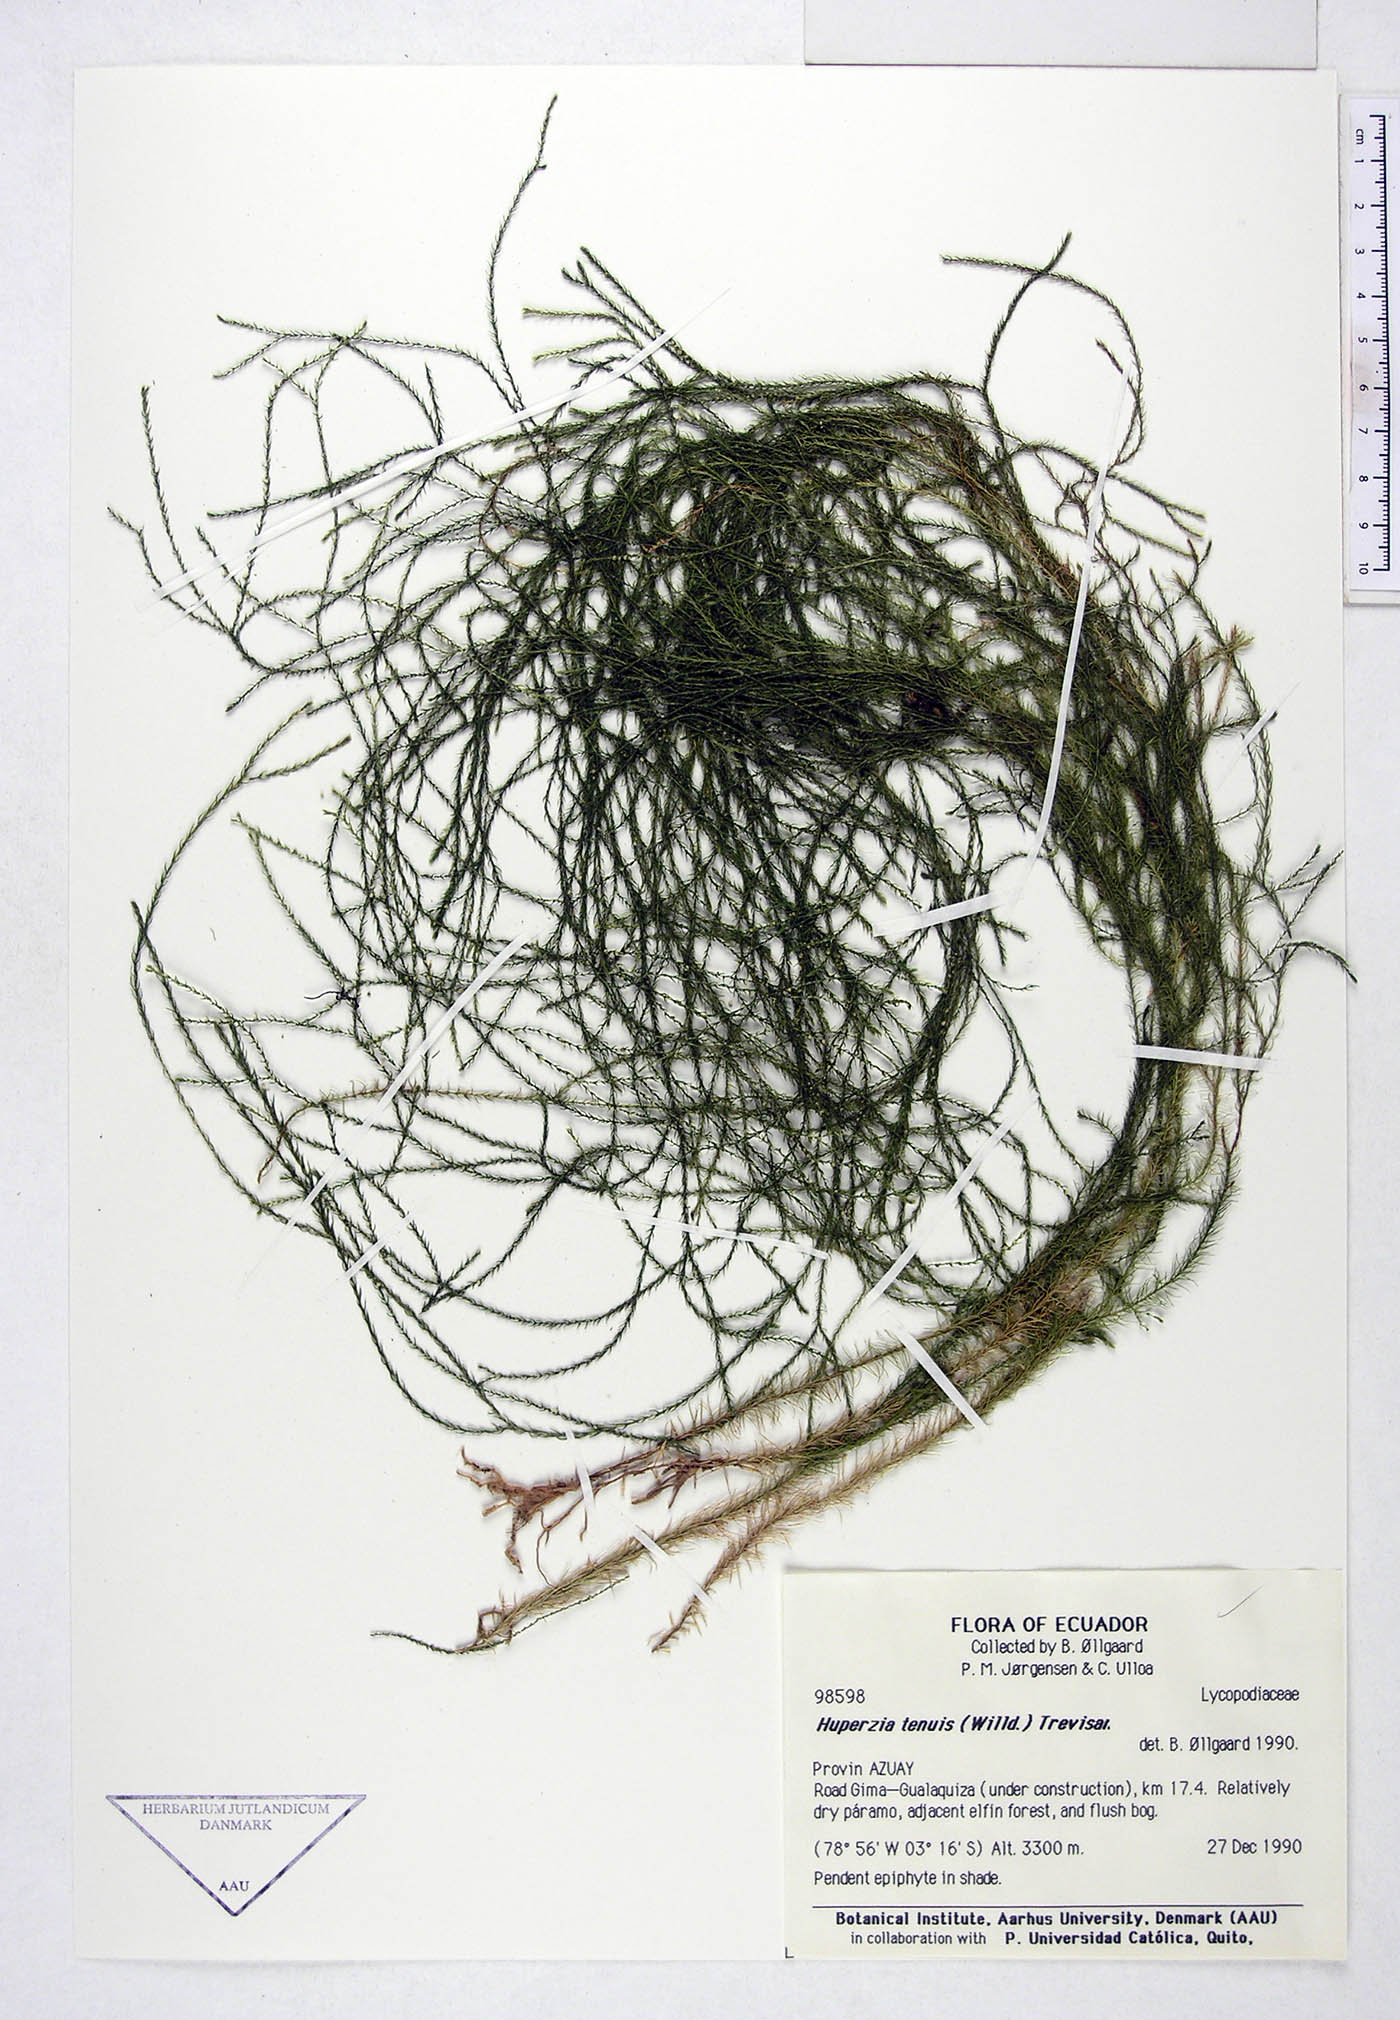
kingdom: Plantae
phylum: Tracheophyta
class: Lycopodiopsida
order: Lycopodiales
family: Lycopodiaceae
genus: Phlegmariurus
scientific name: Phlegmariurus tenuis
